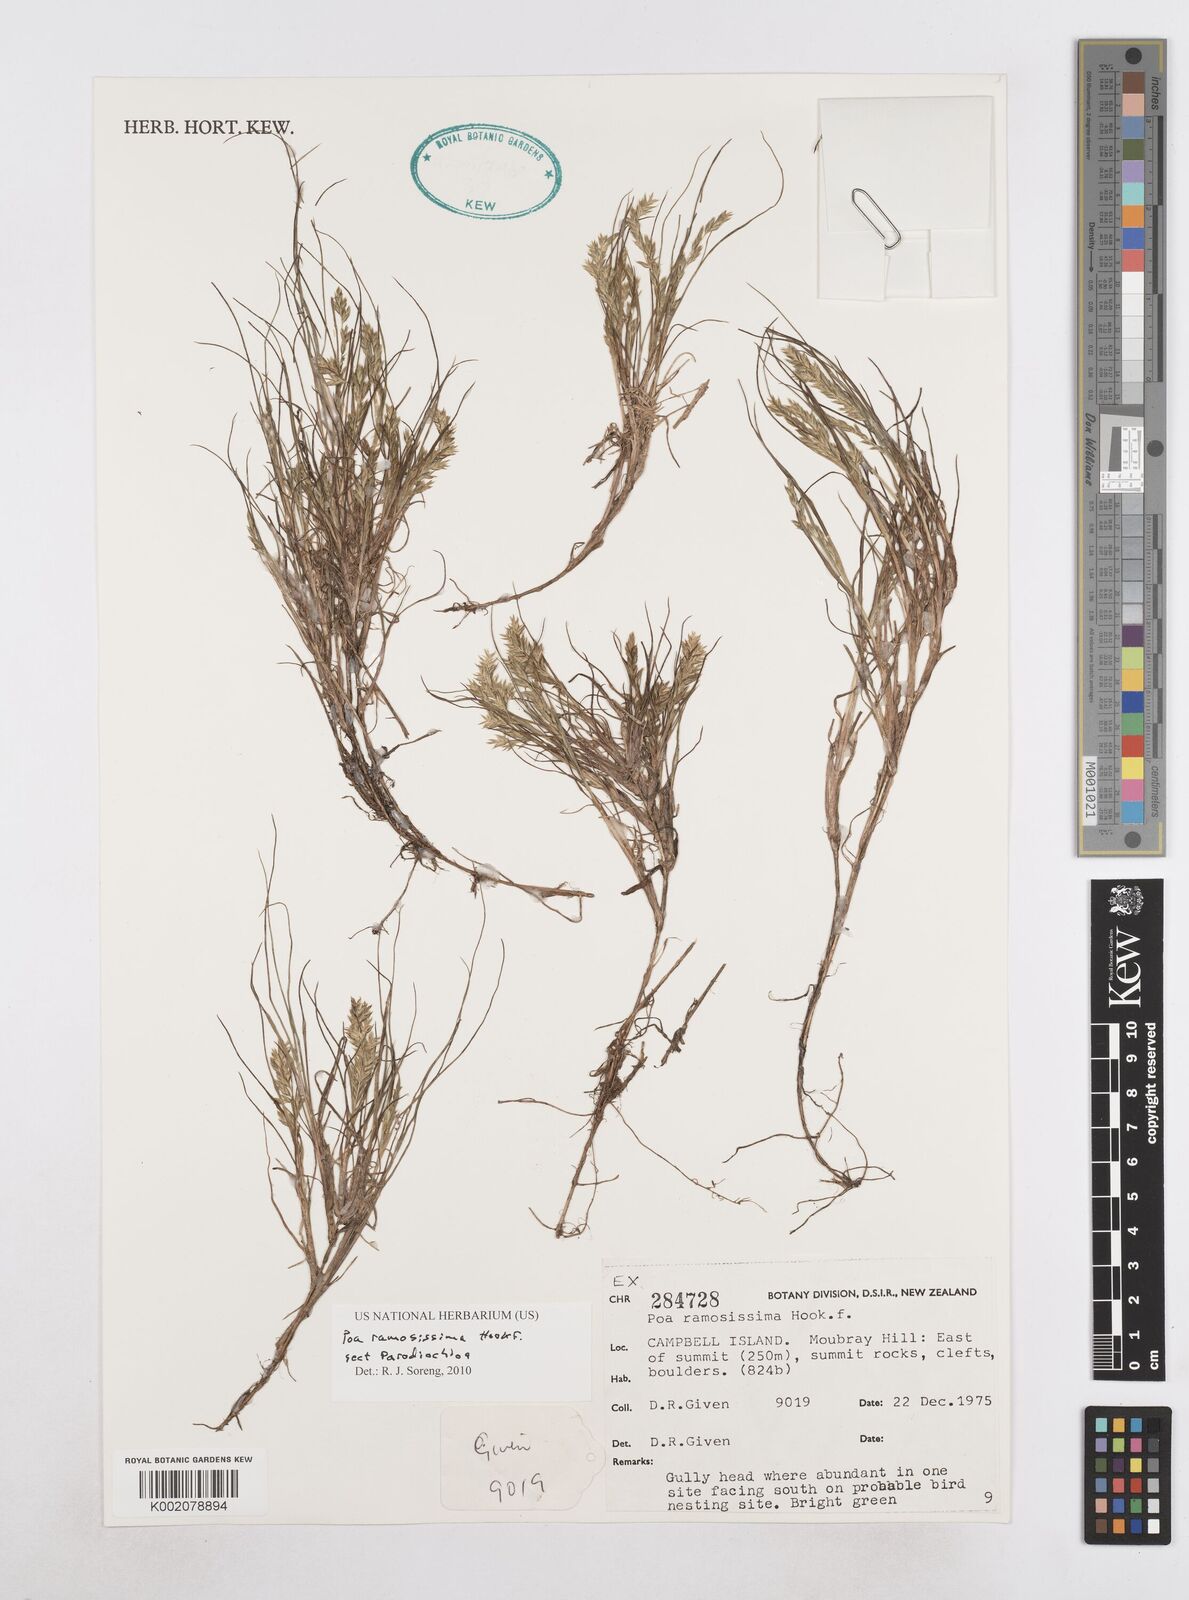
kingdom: Plantae
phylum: Tracheophyta
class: Liliopsida
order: Poales
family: Poaceae
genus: Poa
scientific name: Poa ramosissima
